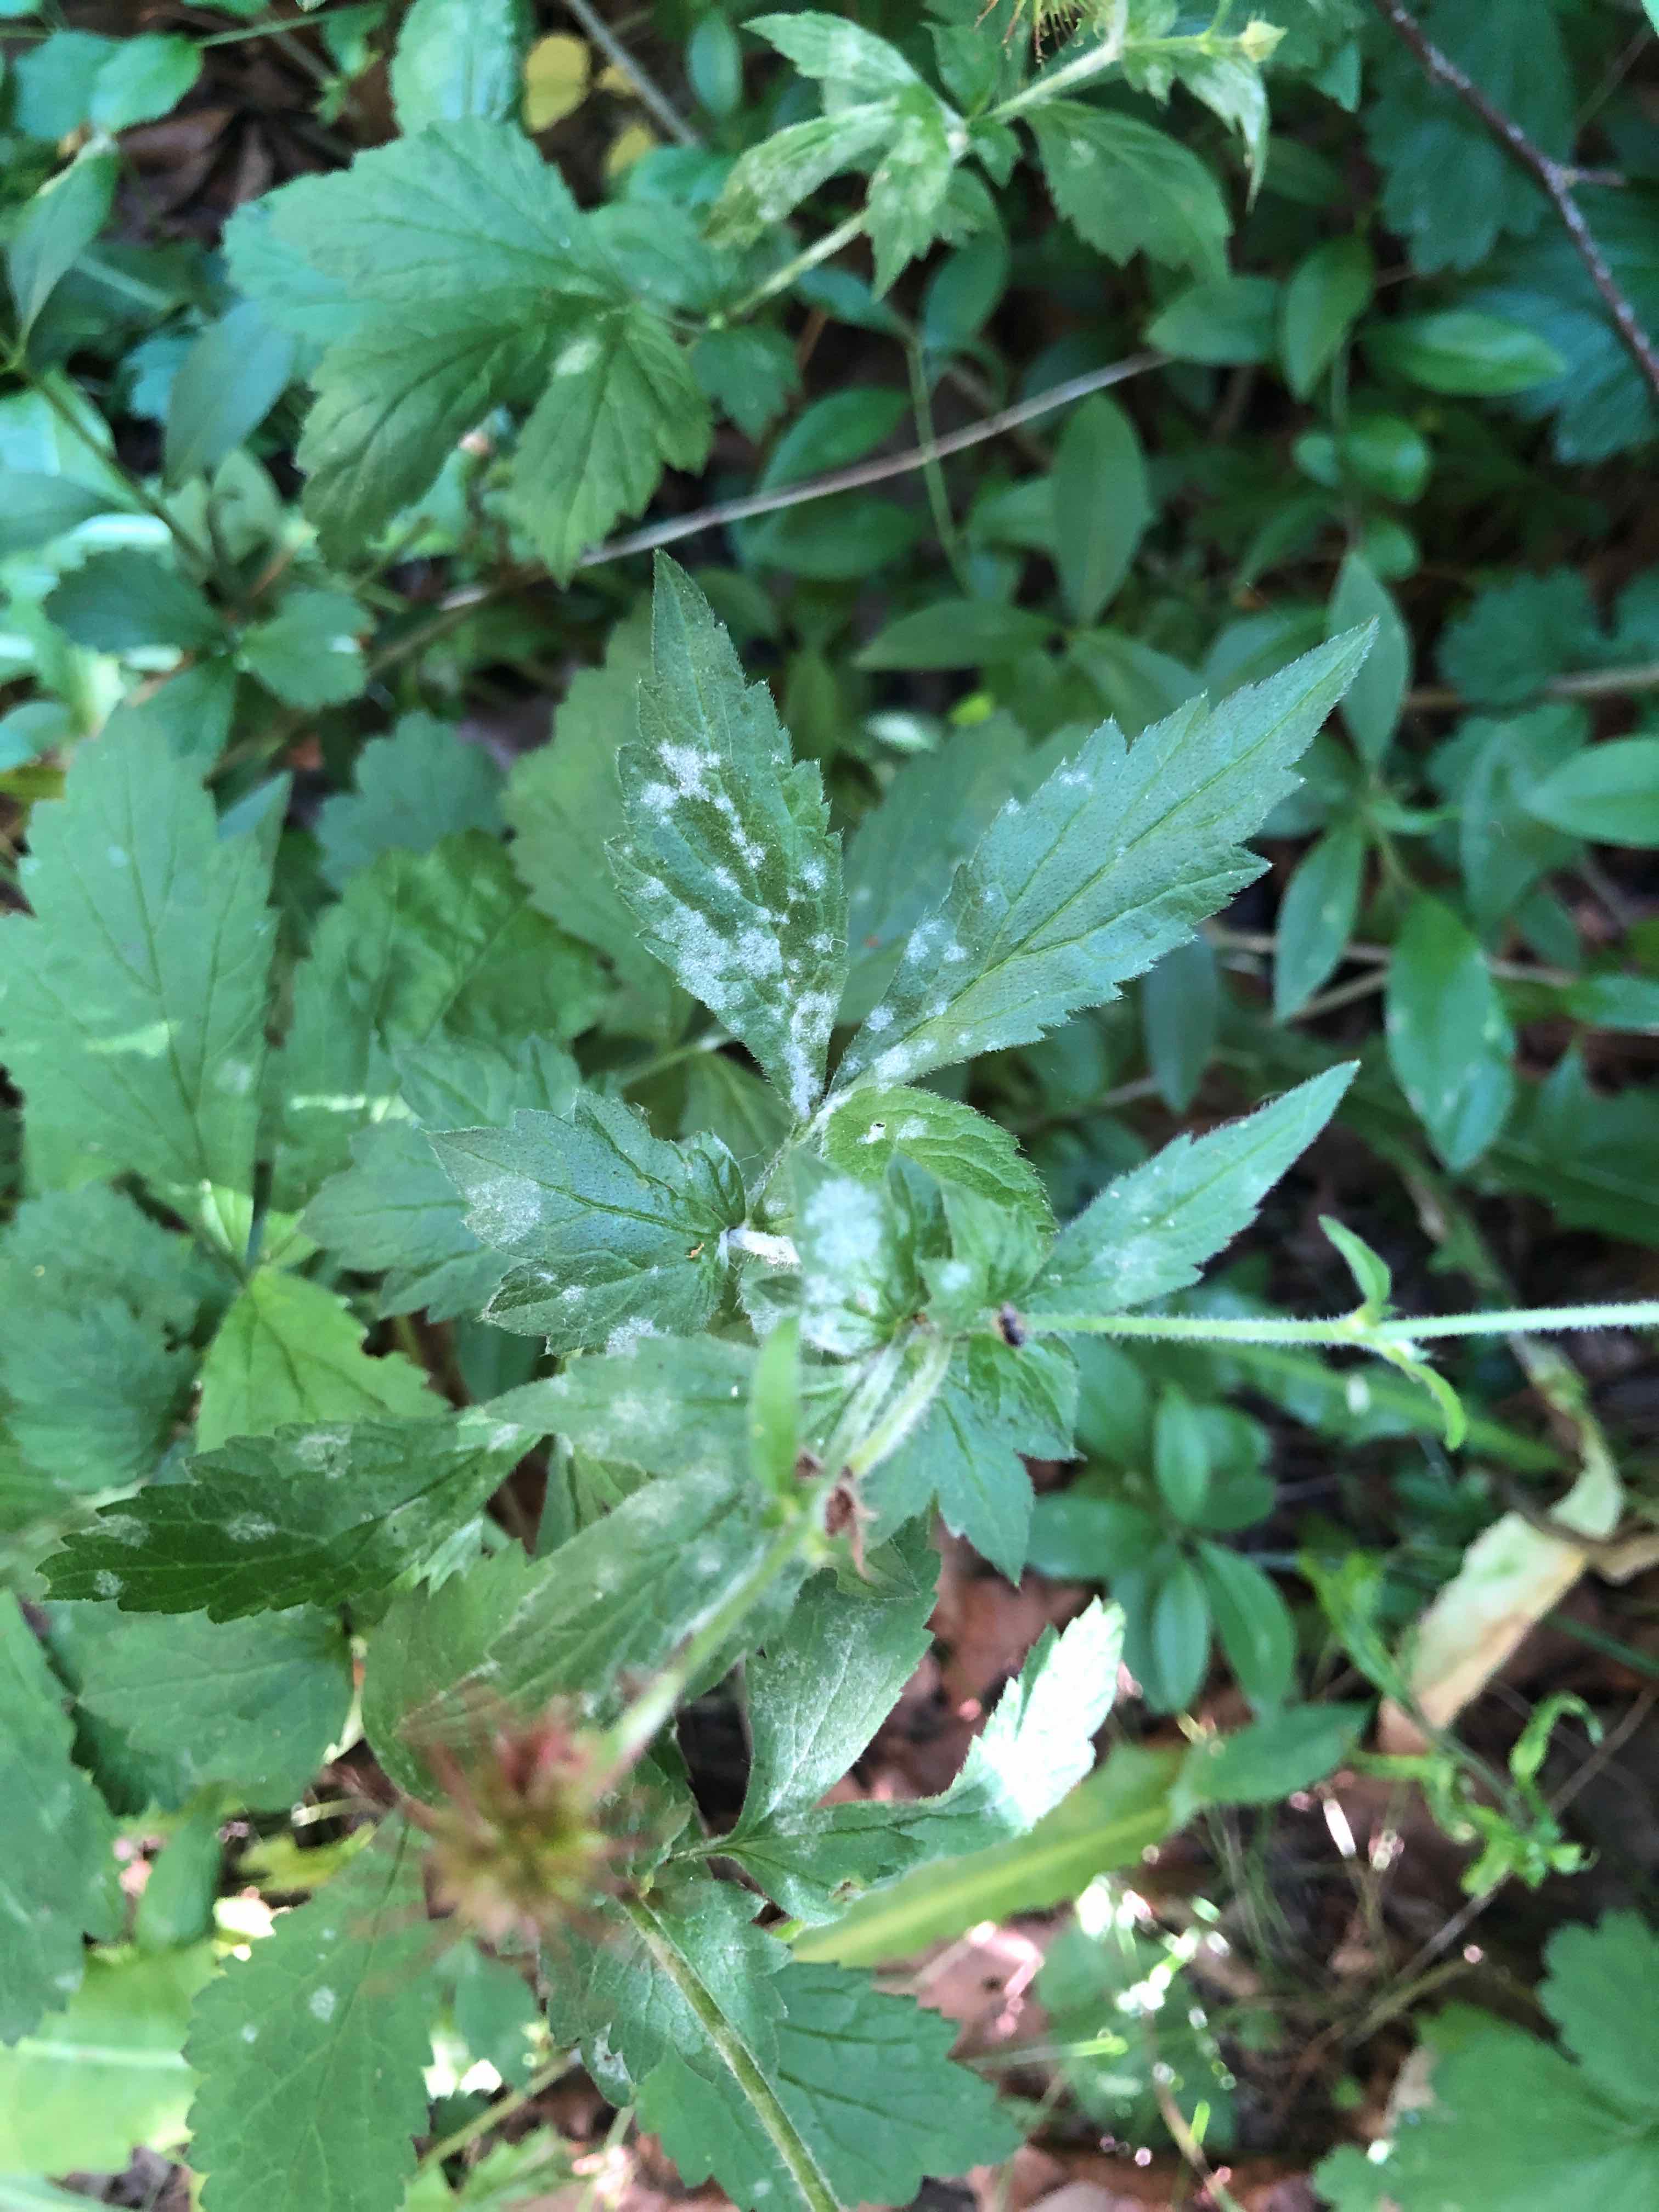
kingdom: Fungi
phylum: Ascomycota
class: Leotiomycetes
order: Helotiales
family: Erysiphaceae
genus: Podosphaera
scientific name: Podosphaera aphanis
